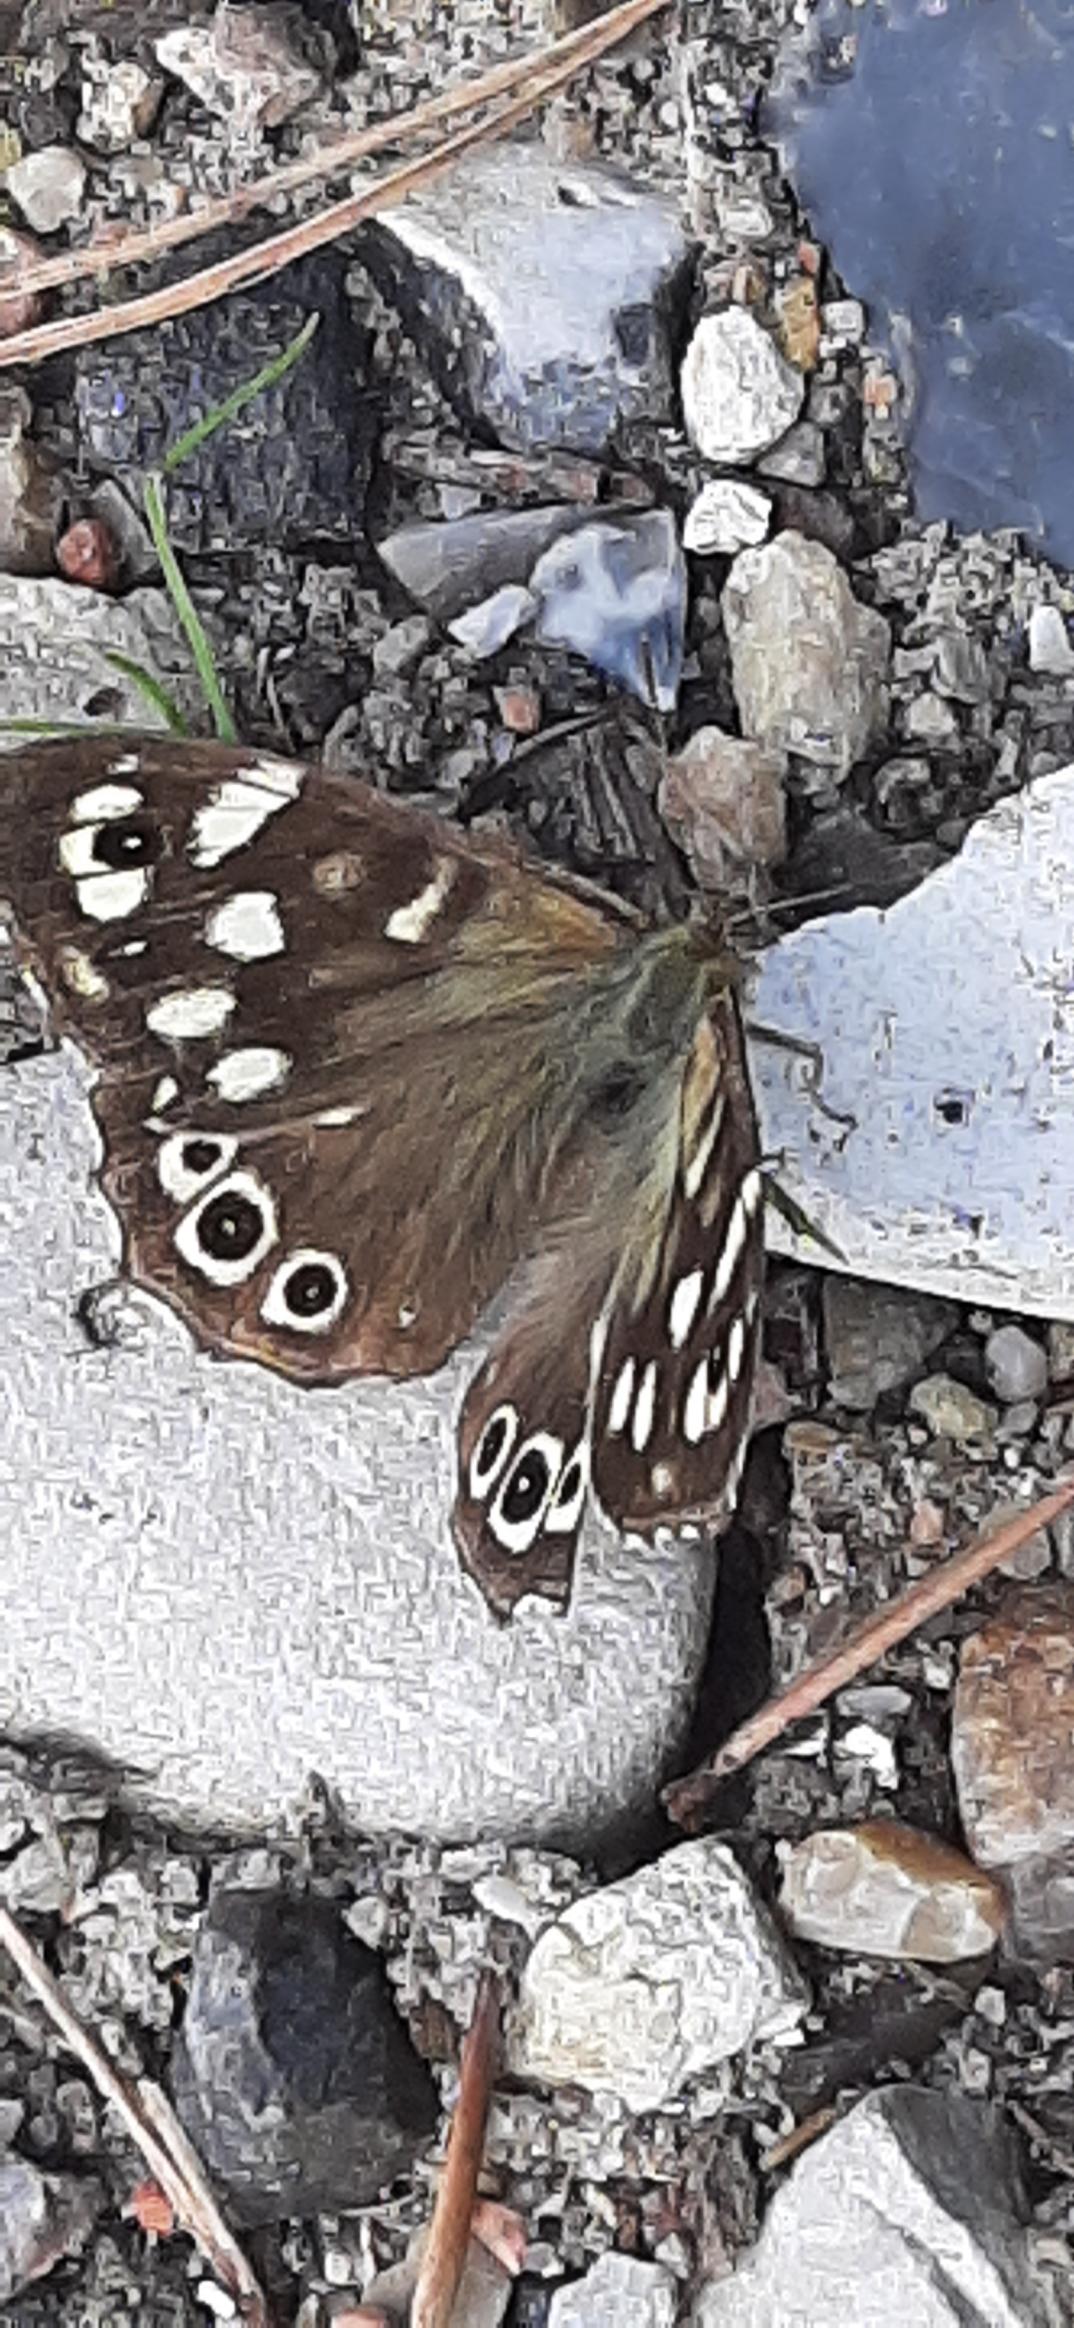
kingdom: Animalia
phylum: Arthropoda
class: Insecta
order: Lepidoptera
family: Nymphalidae
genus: Pararge
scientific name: Pararge aegeria
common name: Skovrandøje
